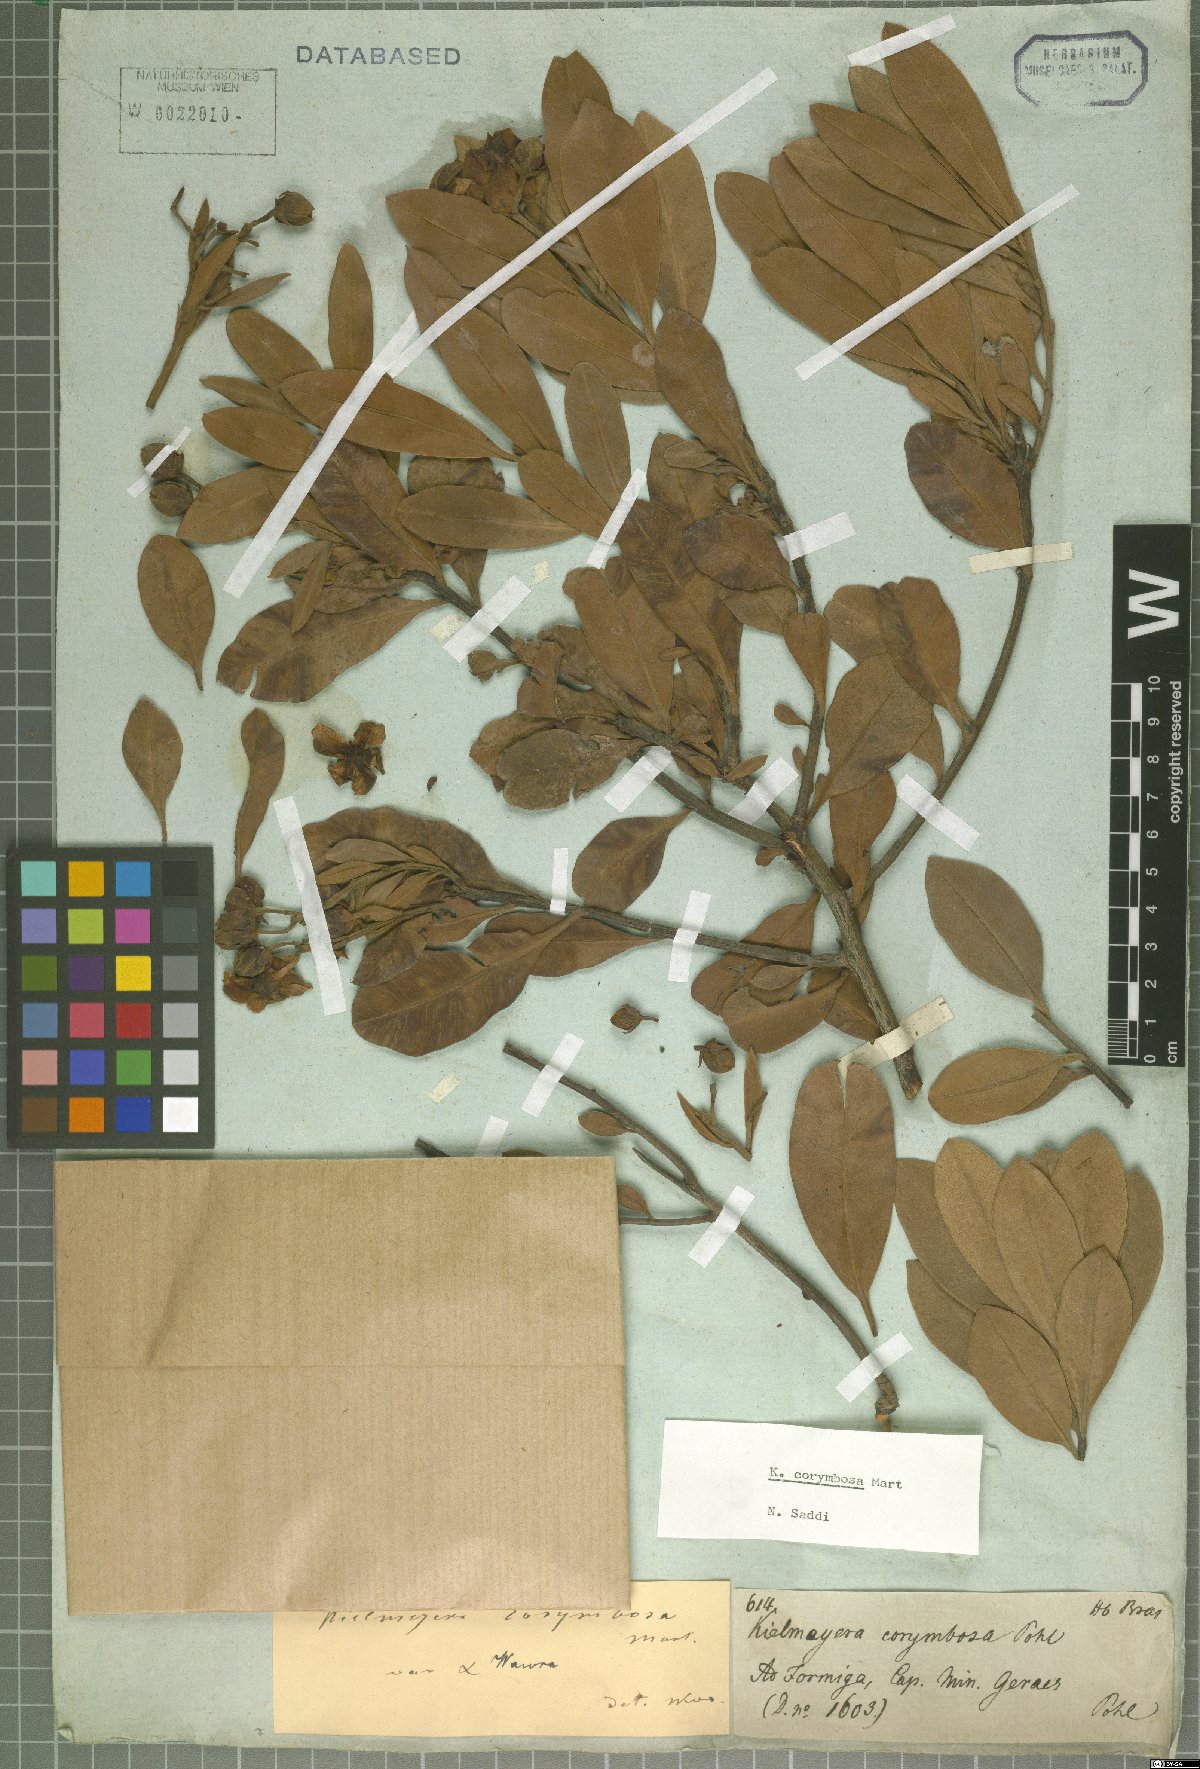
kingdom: Plantae
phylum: Tracheophyta
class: Magnoliopsida
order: Malpighiales
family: Calophyllaceae
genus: Kielmeyera
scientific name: Kielmeyera corymbosa
